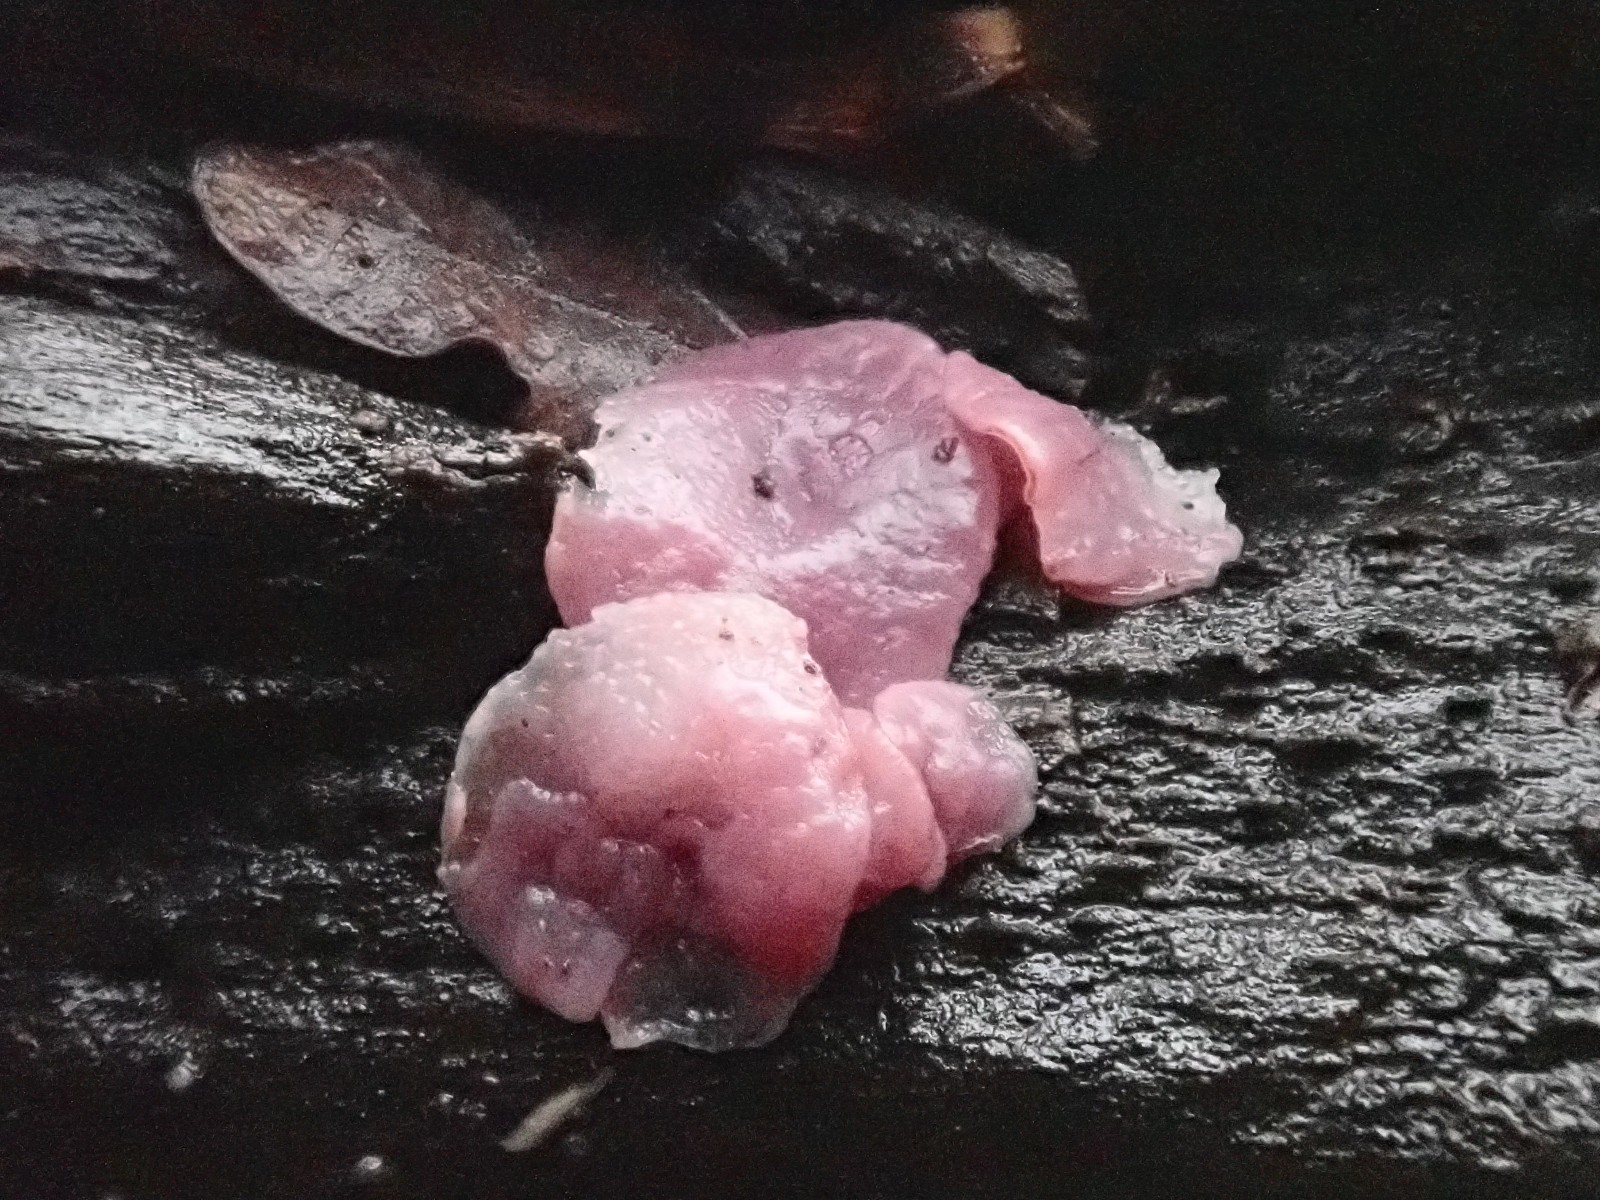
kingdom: Fungi
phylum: Ascomycota
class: Leotiomycetes
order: Helotiales
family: Gelatinodiscaceae
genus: Ascocoryne
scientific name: Ascocoryne cylichnium
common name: stor sejskive
